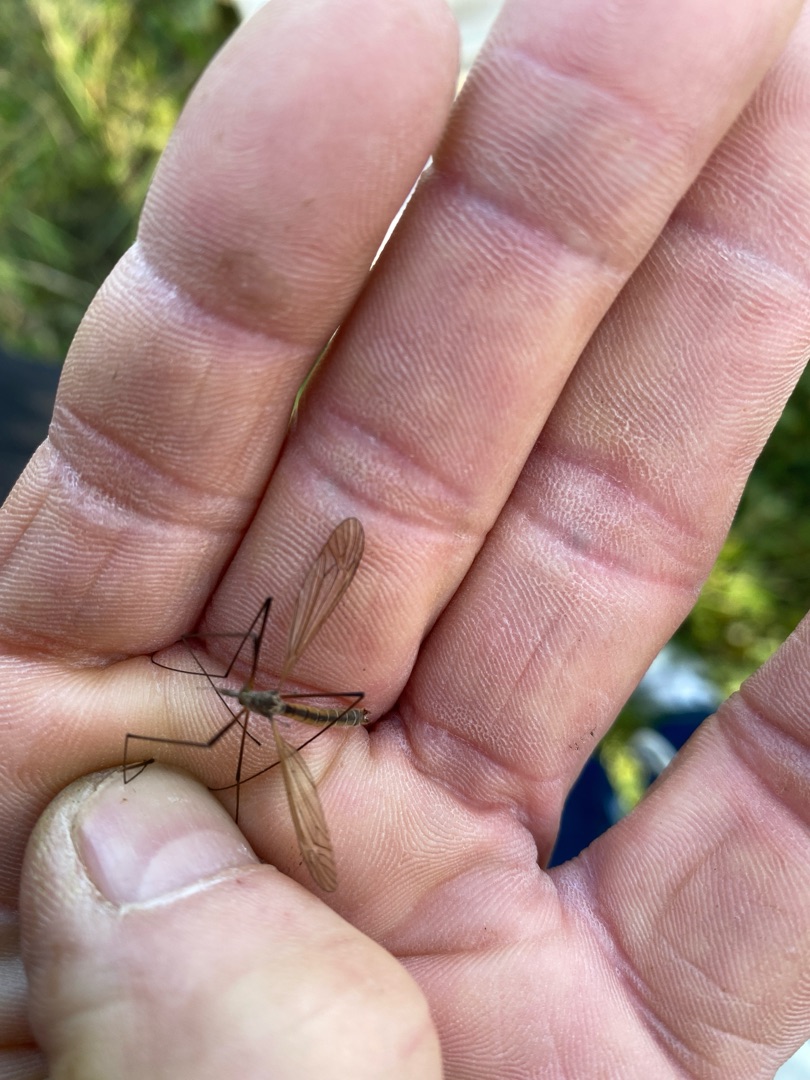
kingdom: Animalia
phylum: Arthropoda
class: Insecta
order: Diptera
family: Tipulidae
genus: Tipula
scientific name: Tipula luteipennis
